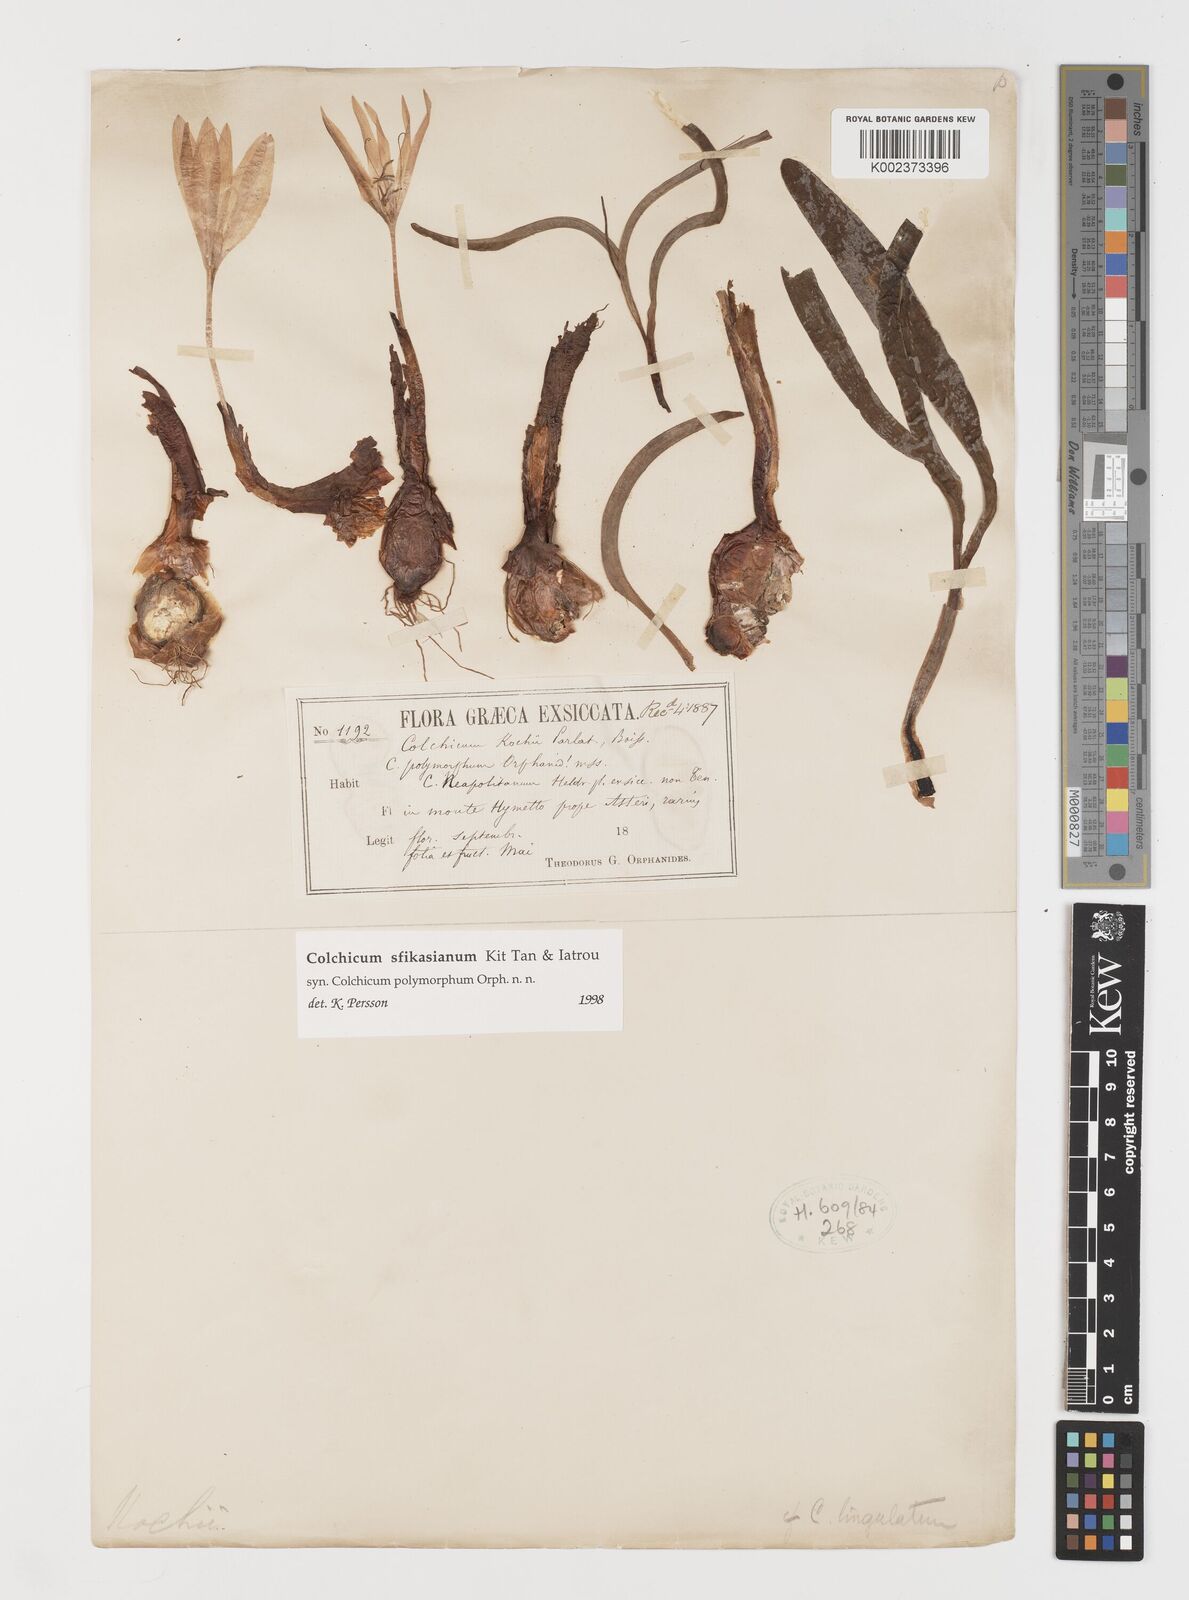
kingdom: Plantae
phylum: Tracheophyta
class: Liliopsida
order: Liliales
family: Colchicaceae
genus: Colchicum
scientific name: Colchicum sfikasianum
